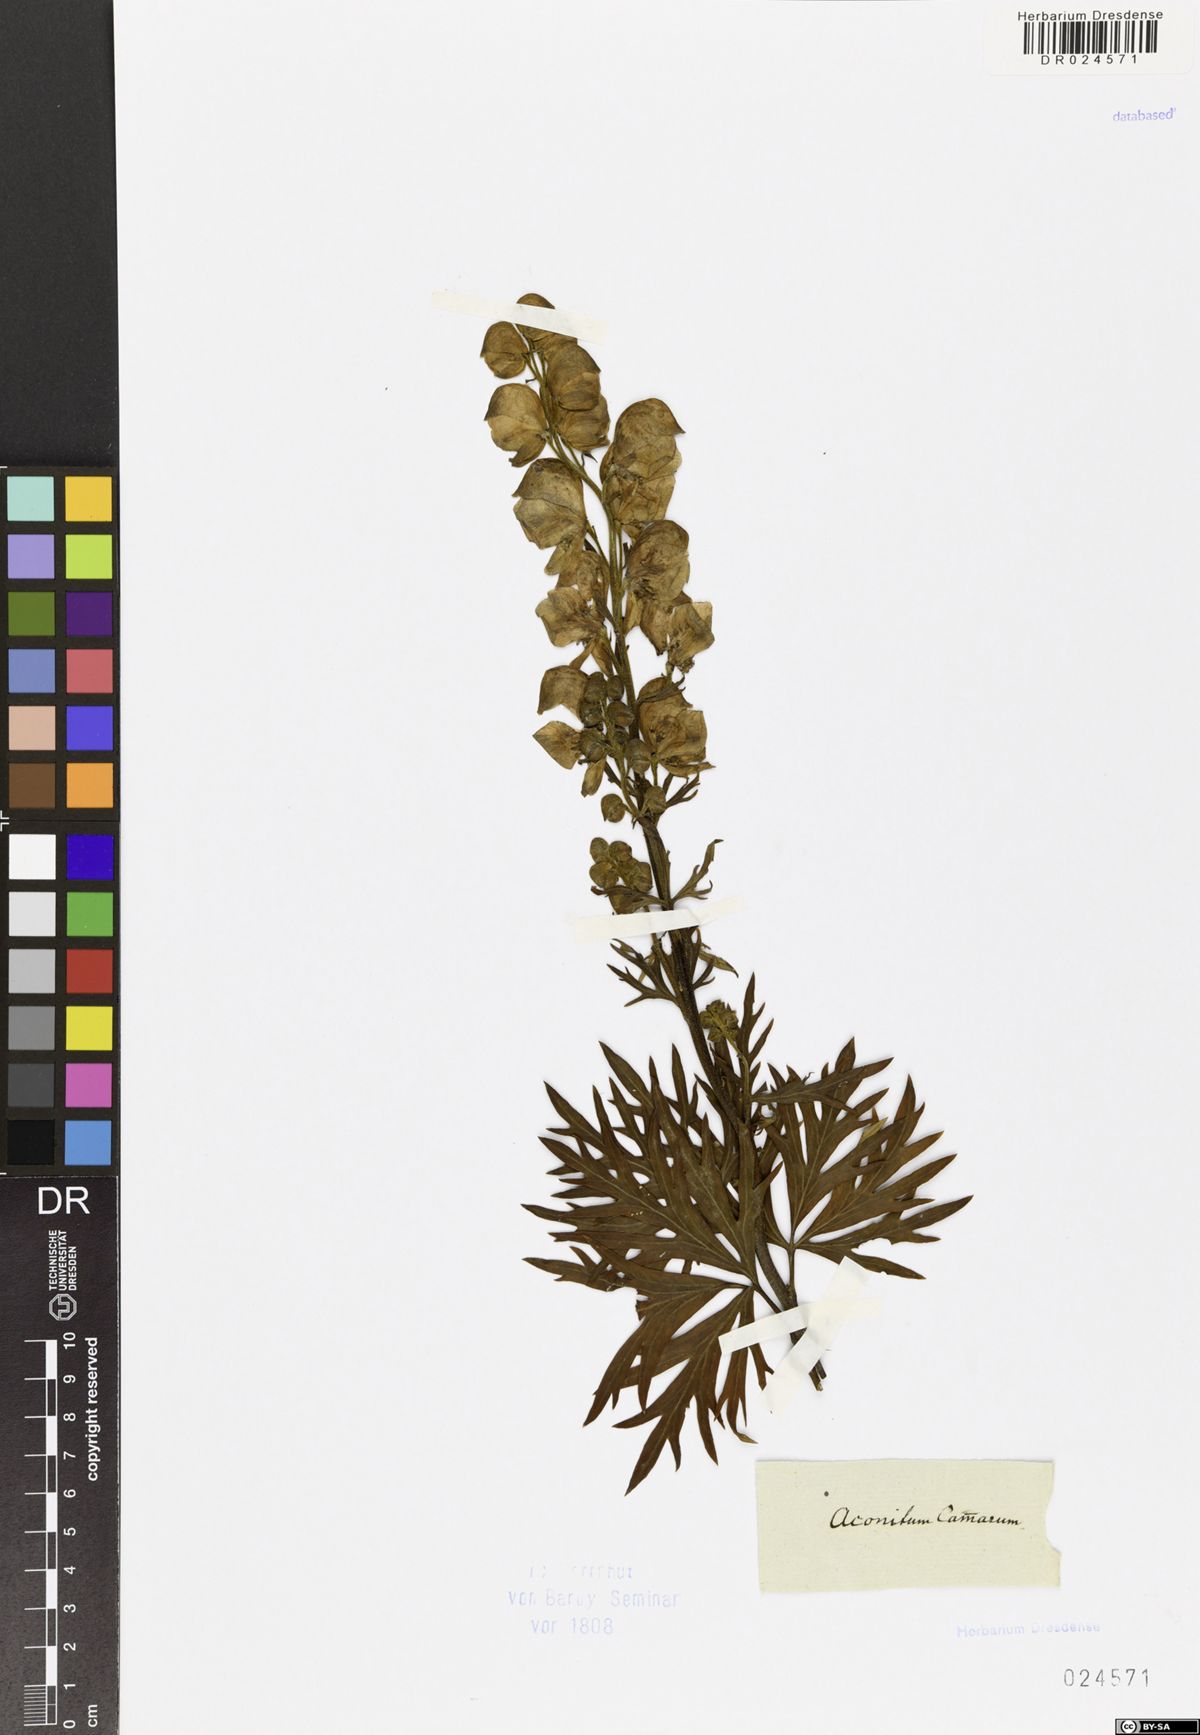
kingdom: Plantae
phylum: Tracheophyta
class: Magnoliopsida
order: Ranunculales
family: Ranunculaceae
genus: Aconitum
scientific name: Aconitum napellus
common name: Garden monkshood
